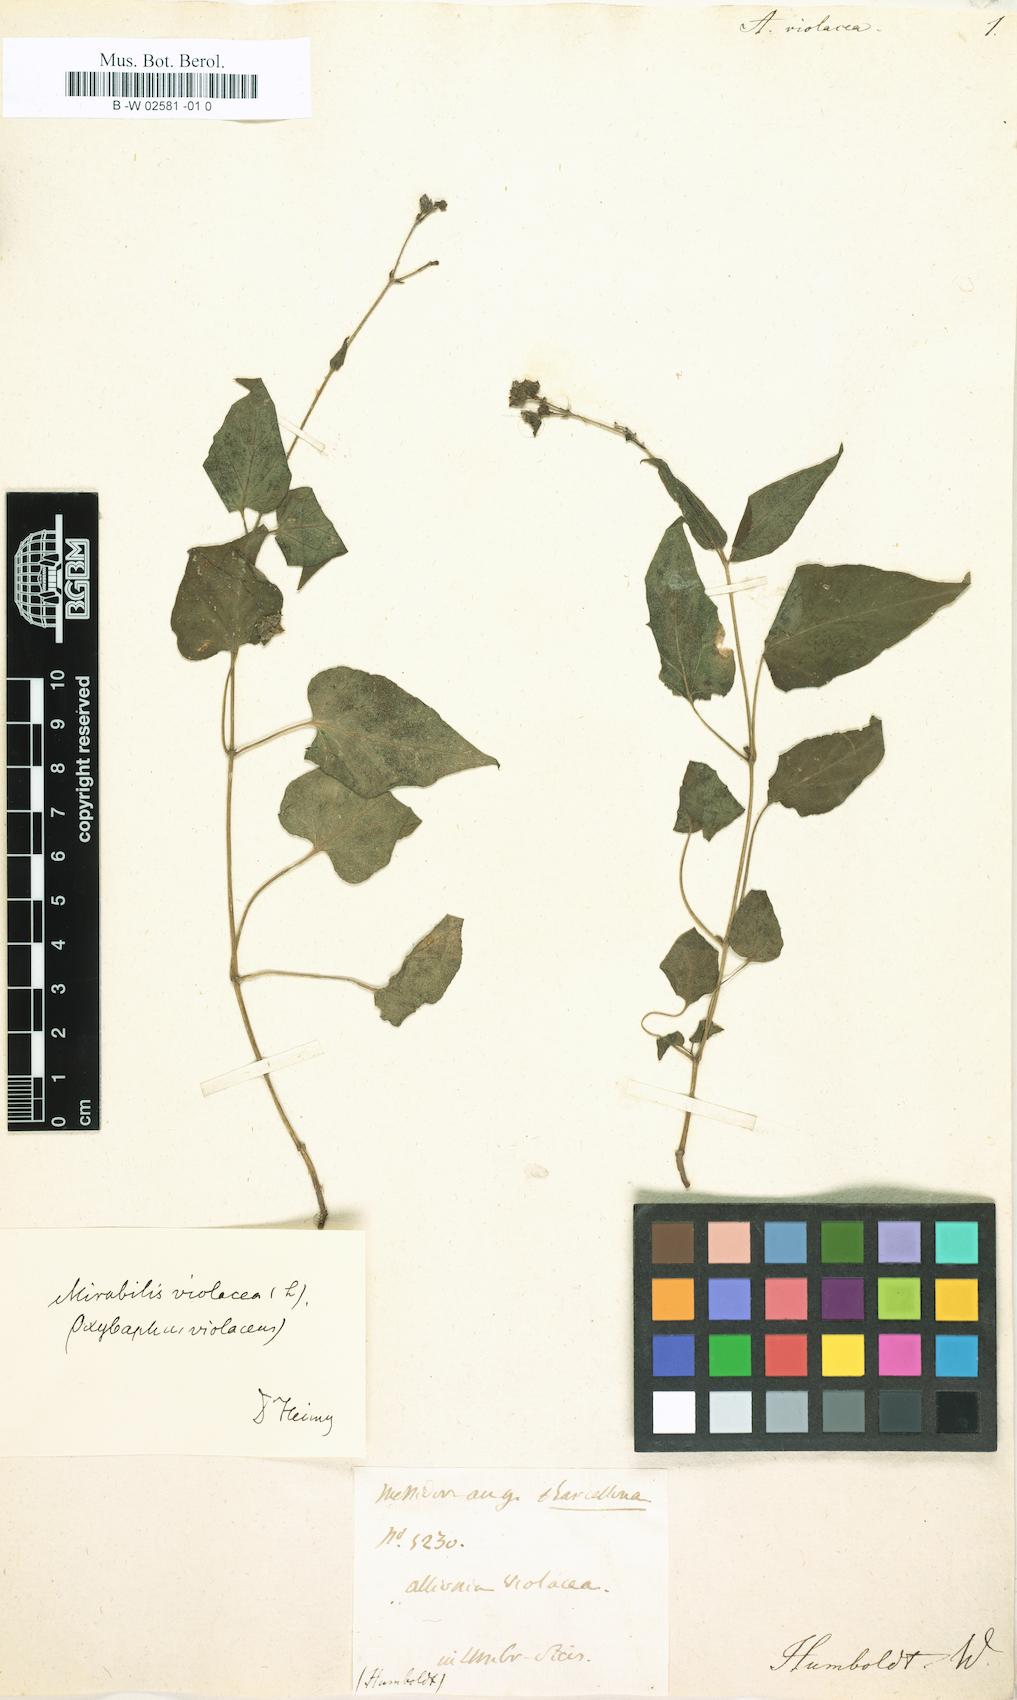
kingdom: Plantae
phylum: Tracheophyta
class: Magnoliopsida
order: Caryophyllales
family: Nyctaginaceae
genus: Mirabilis
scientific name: Mirabilis violacea
